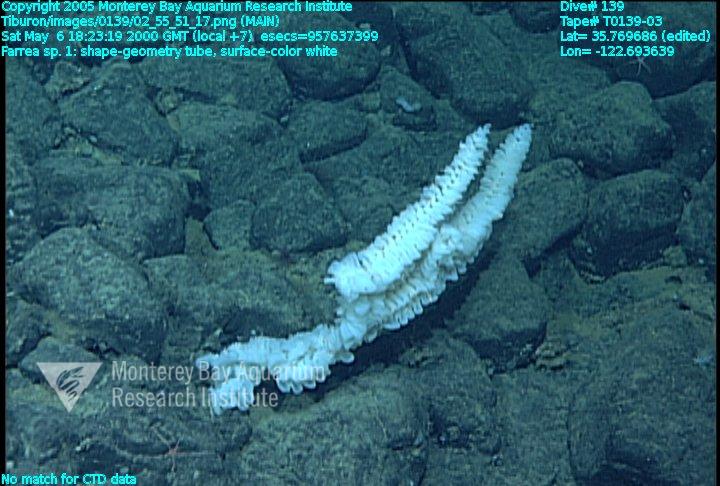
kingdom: Animalia
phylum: Porifera
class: Hexactinellida
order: Sceptrulophora
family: Farreidae
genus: Farrea
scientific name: Farrea truncata
